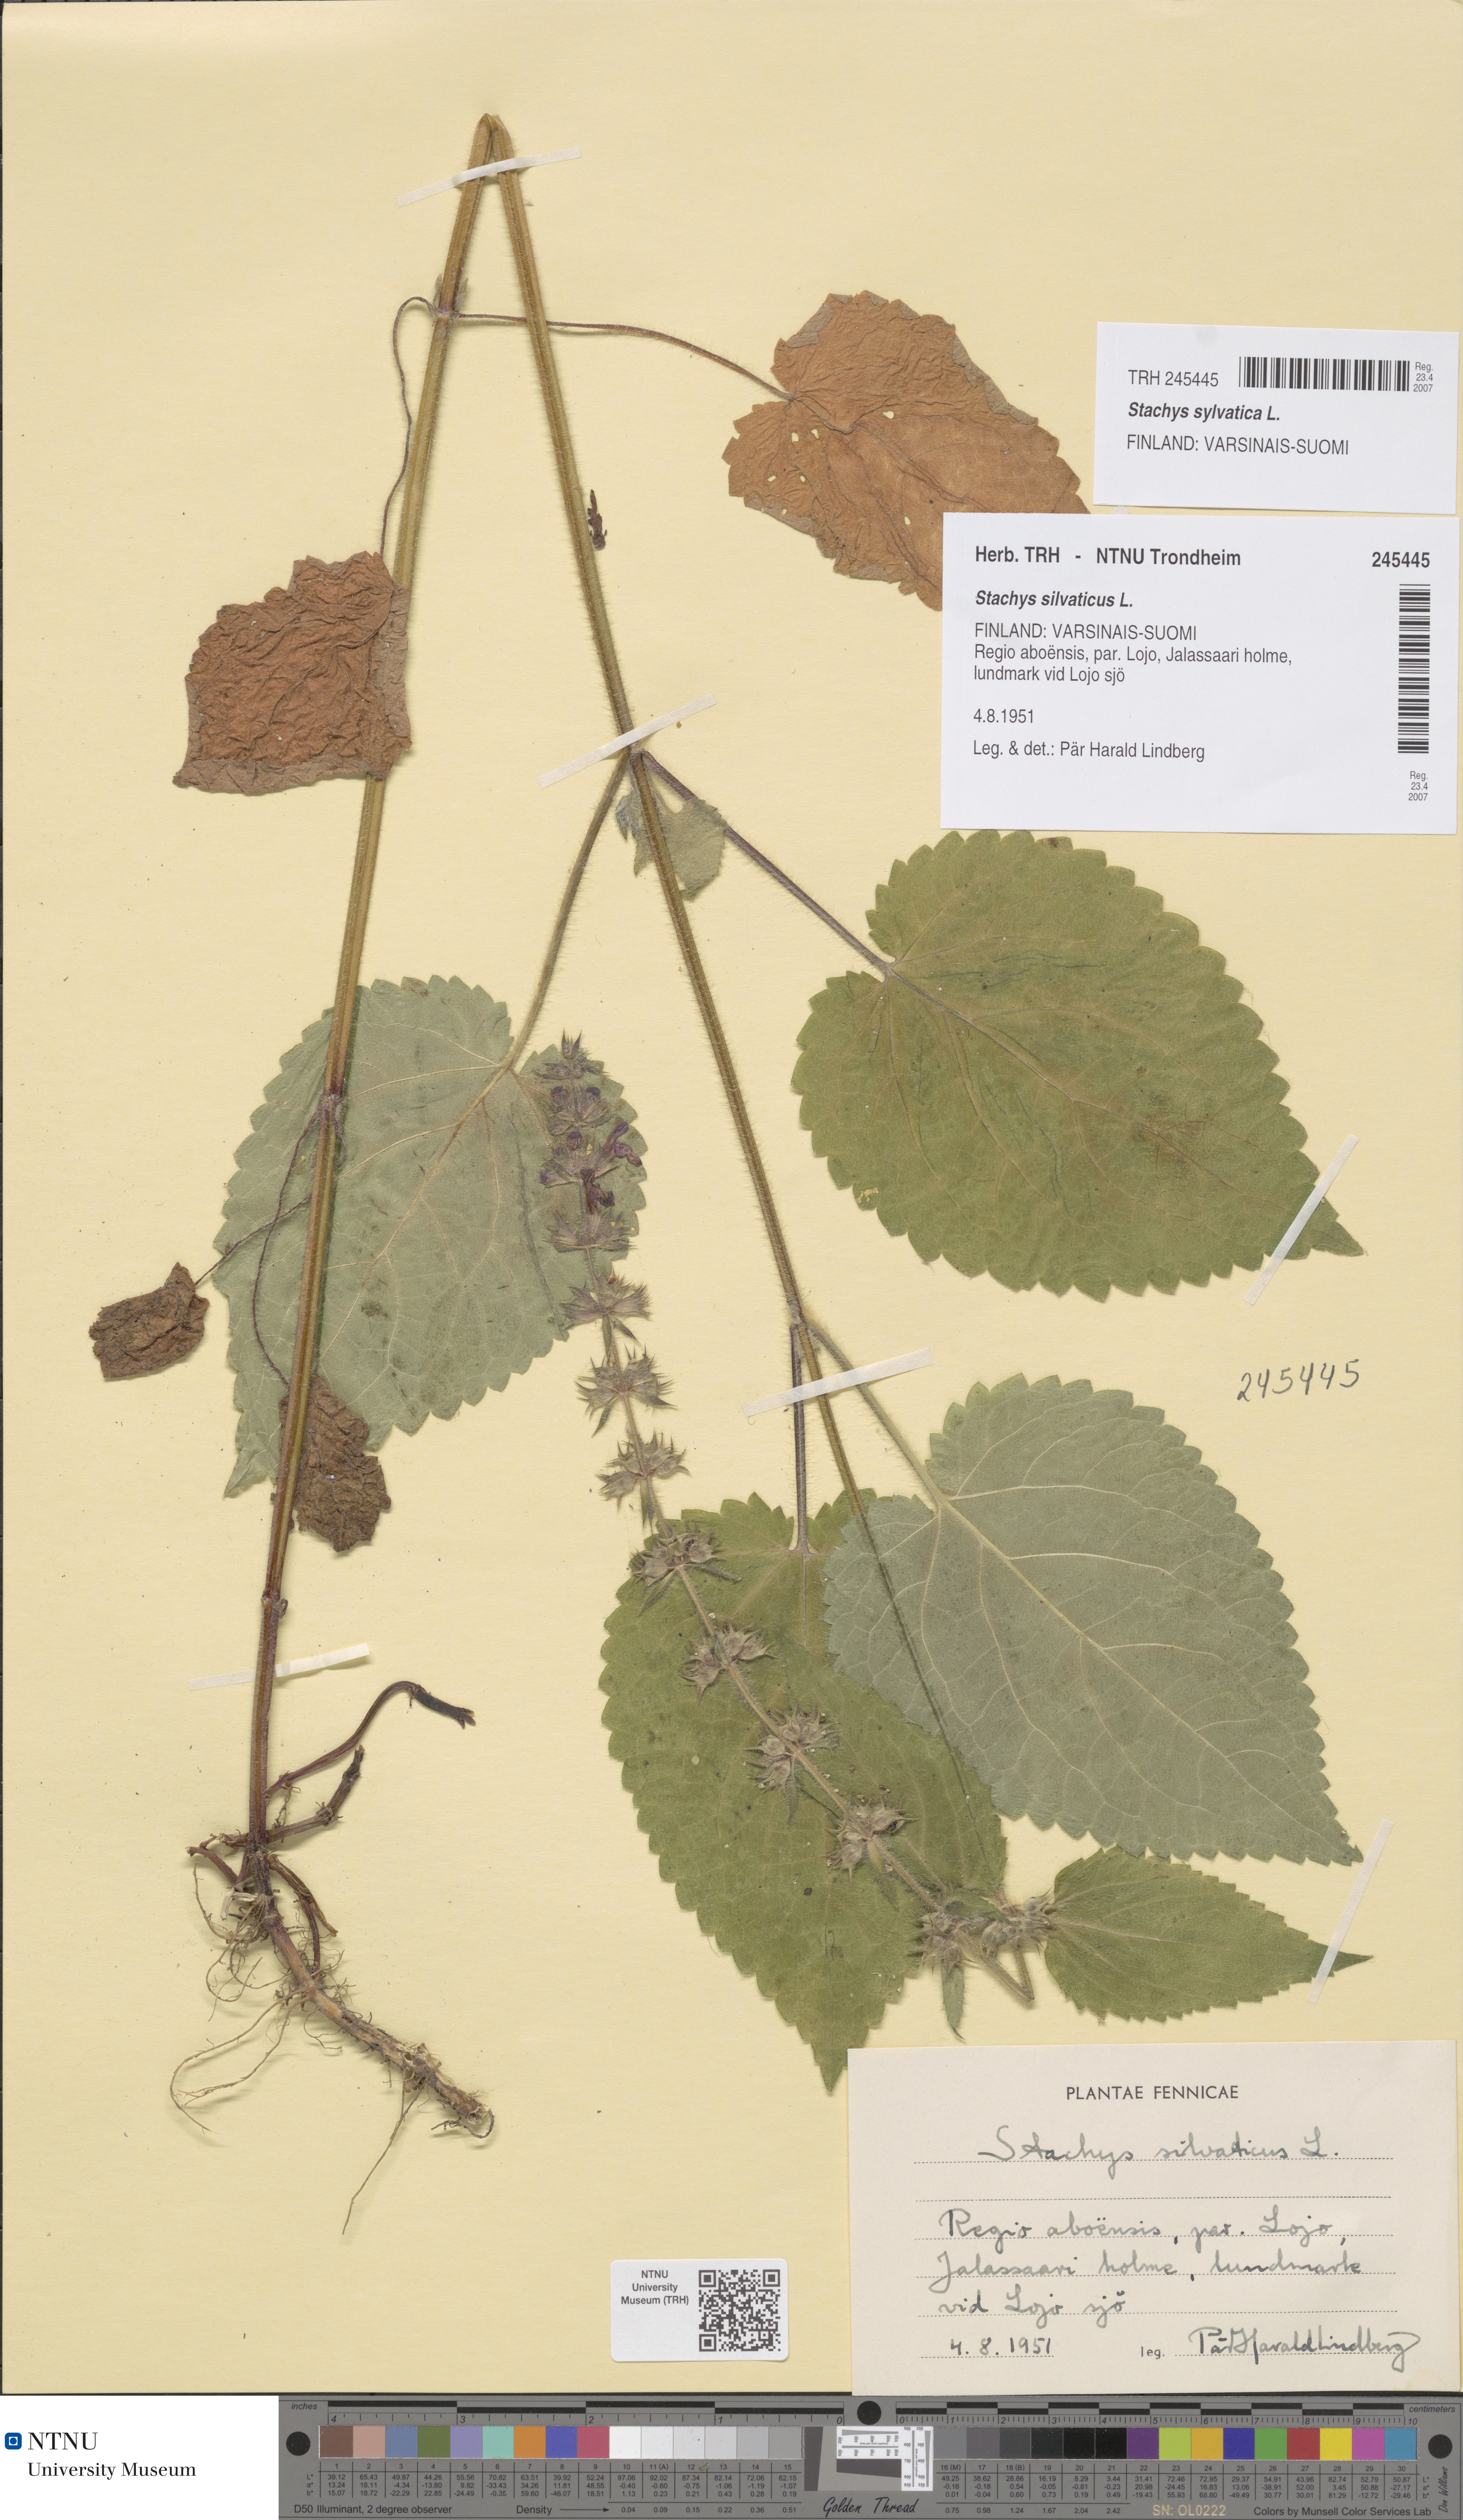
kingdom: Plantae
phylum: Tracheophyta
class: Magnoliopsida
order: Lamiales
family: Lamiaceae
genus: Stachys
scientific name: Stachys sylvatica
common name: Hedge woundwort
